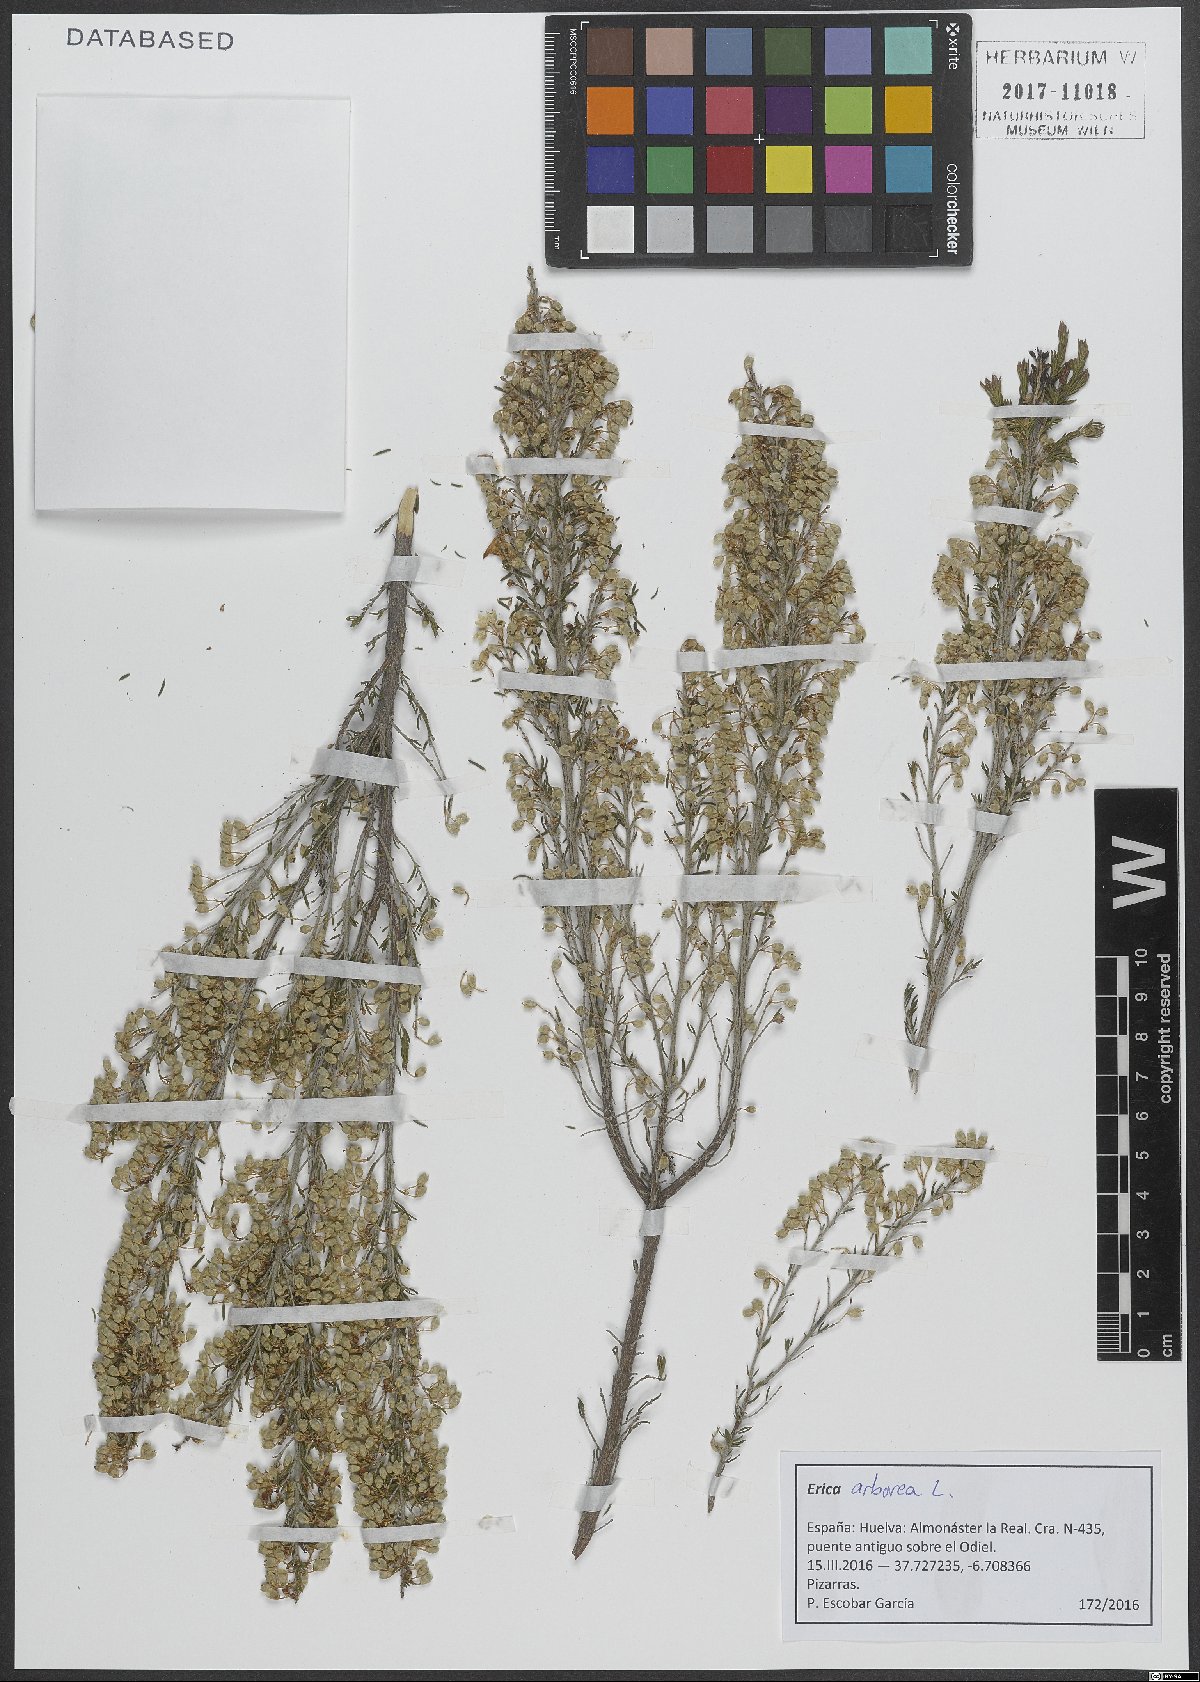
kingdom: Plantae
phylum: Tracheophyta
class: Magnoliopsida
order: Ericales
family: Ericaceae
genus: Erica
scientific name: Erica arborea
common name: Tree heath
